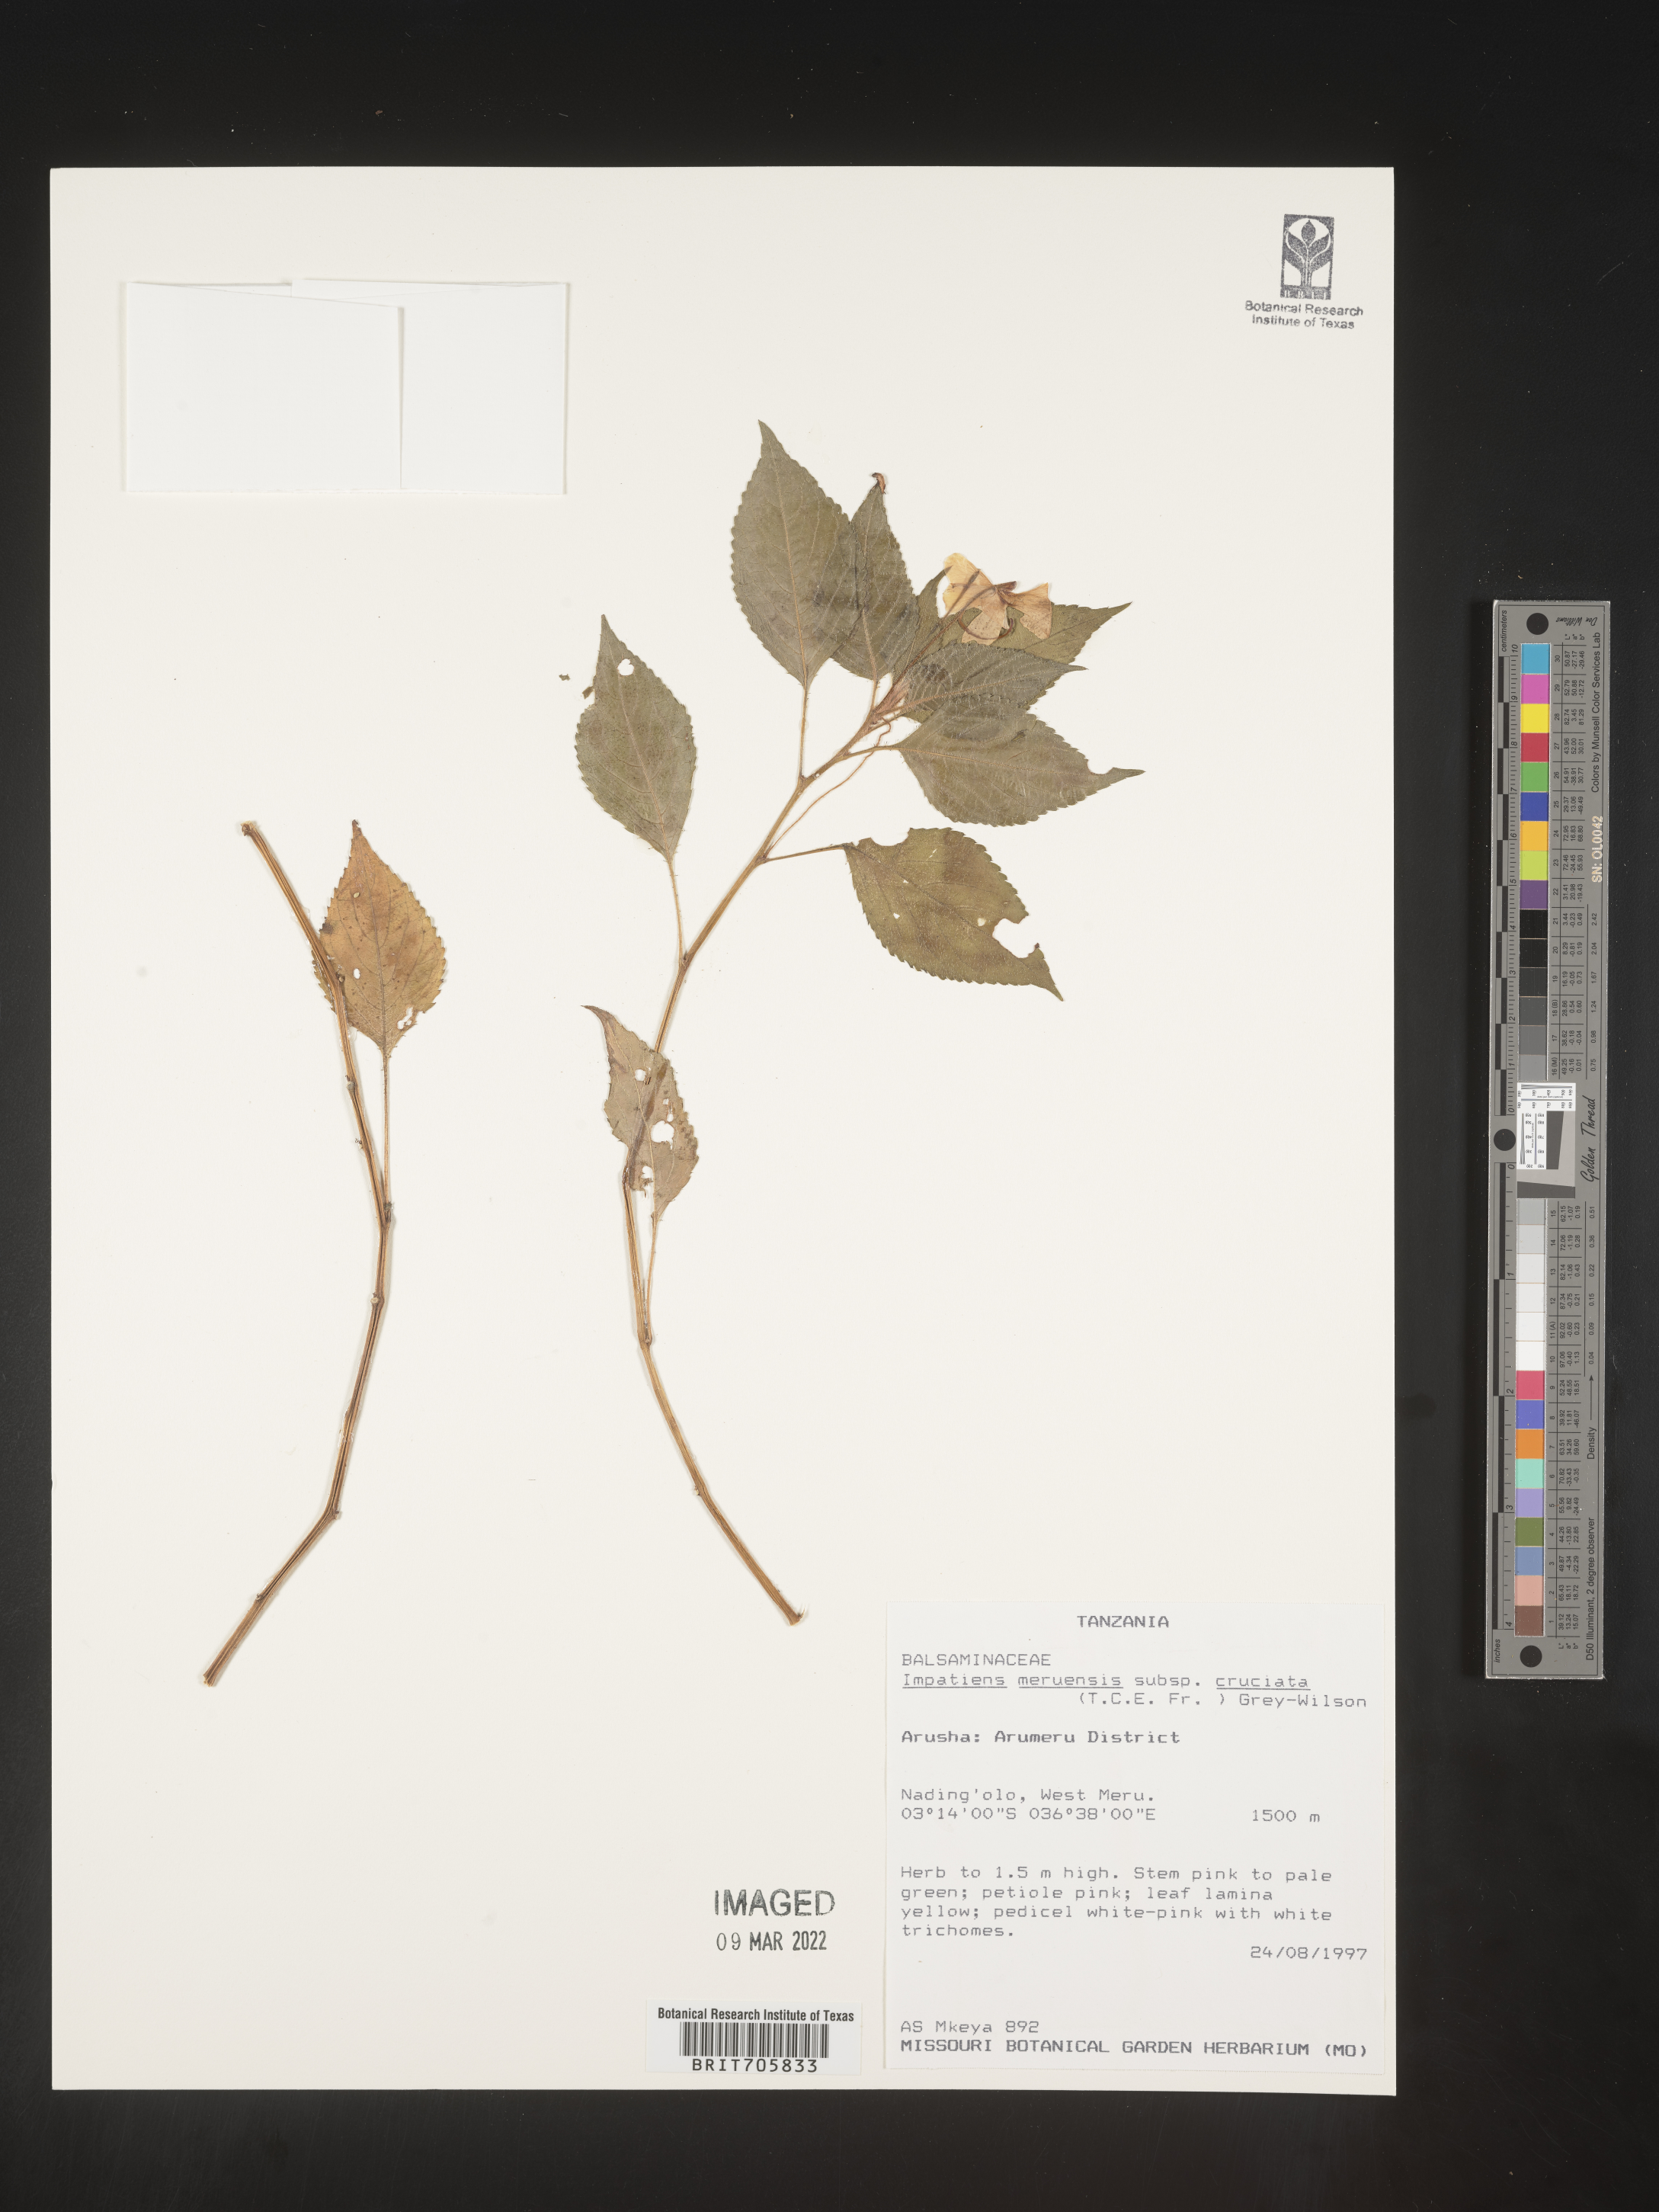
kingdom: Plantae
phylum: Tracheophyta
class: Magnoliopsida
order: Ericales
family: Balsaminaceae
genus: Impatiens
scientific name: Impatiens
